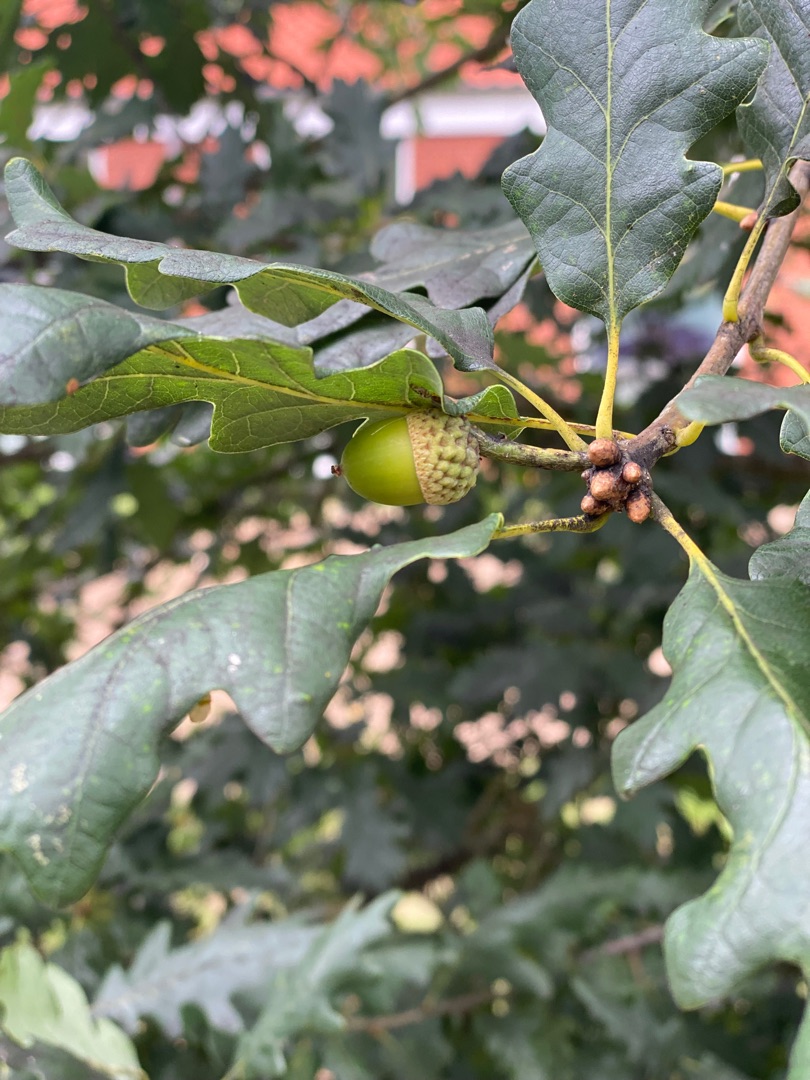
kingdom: Plantae
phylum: Tracheophyta
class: Magnoliopsida
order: Fagales
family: Fagaceae
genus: Quercus
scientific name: Quercus petraea
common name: Vinter-eg
